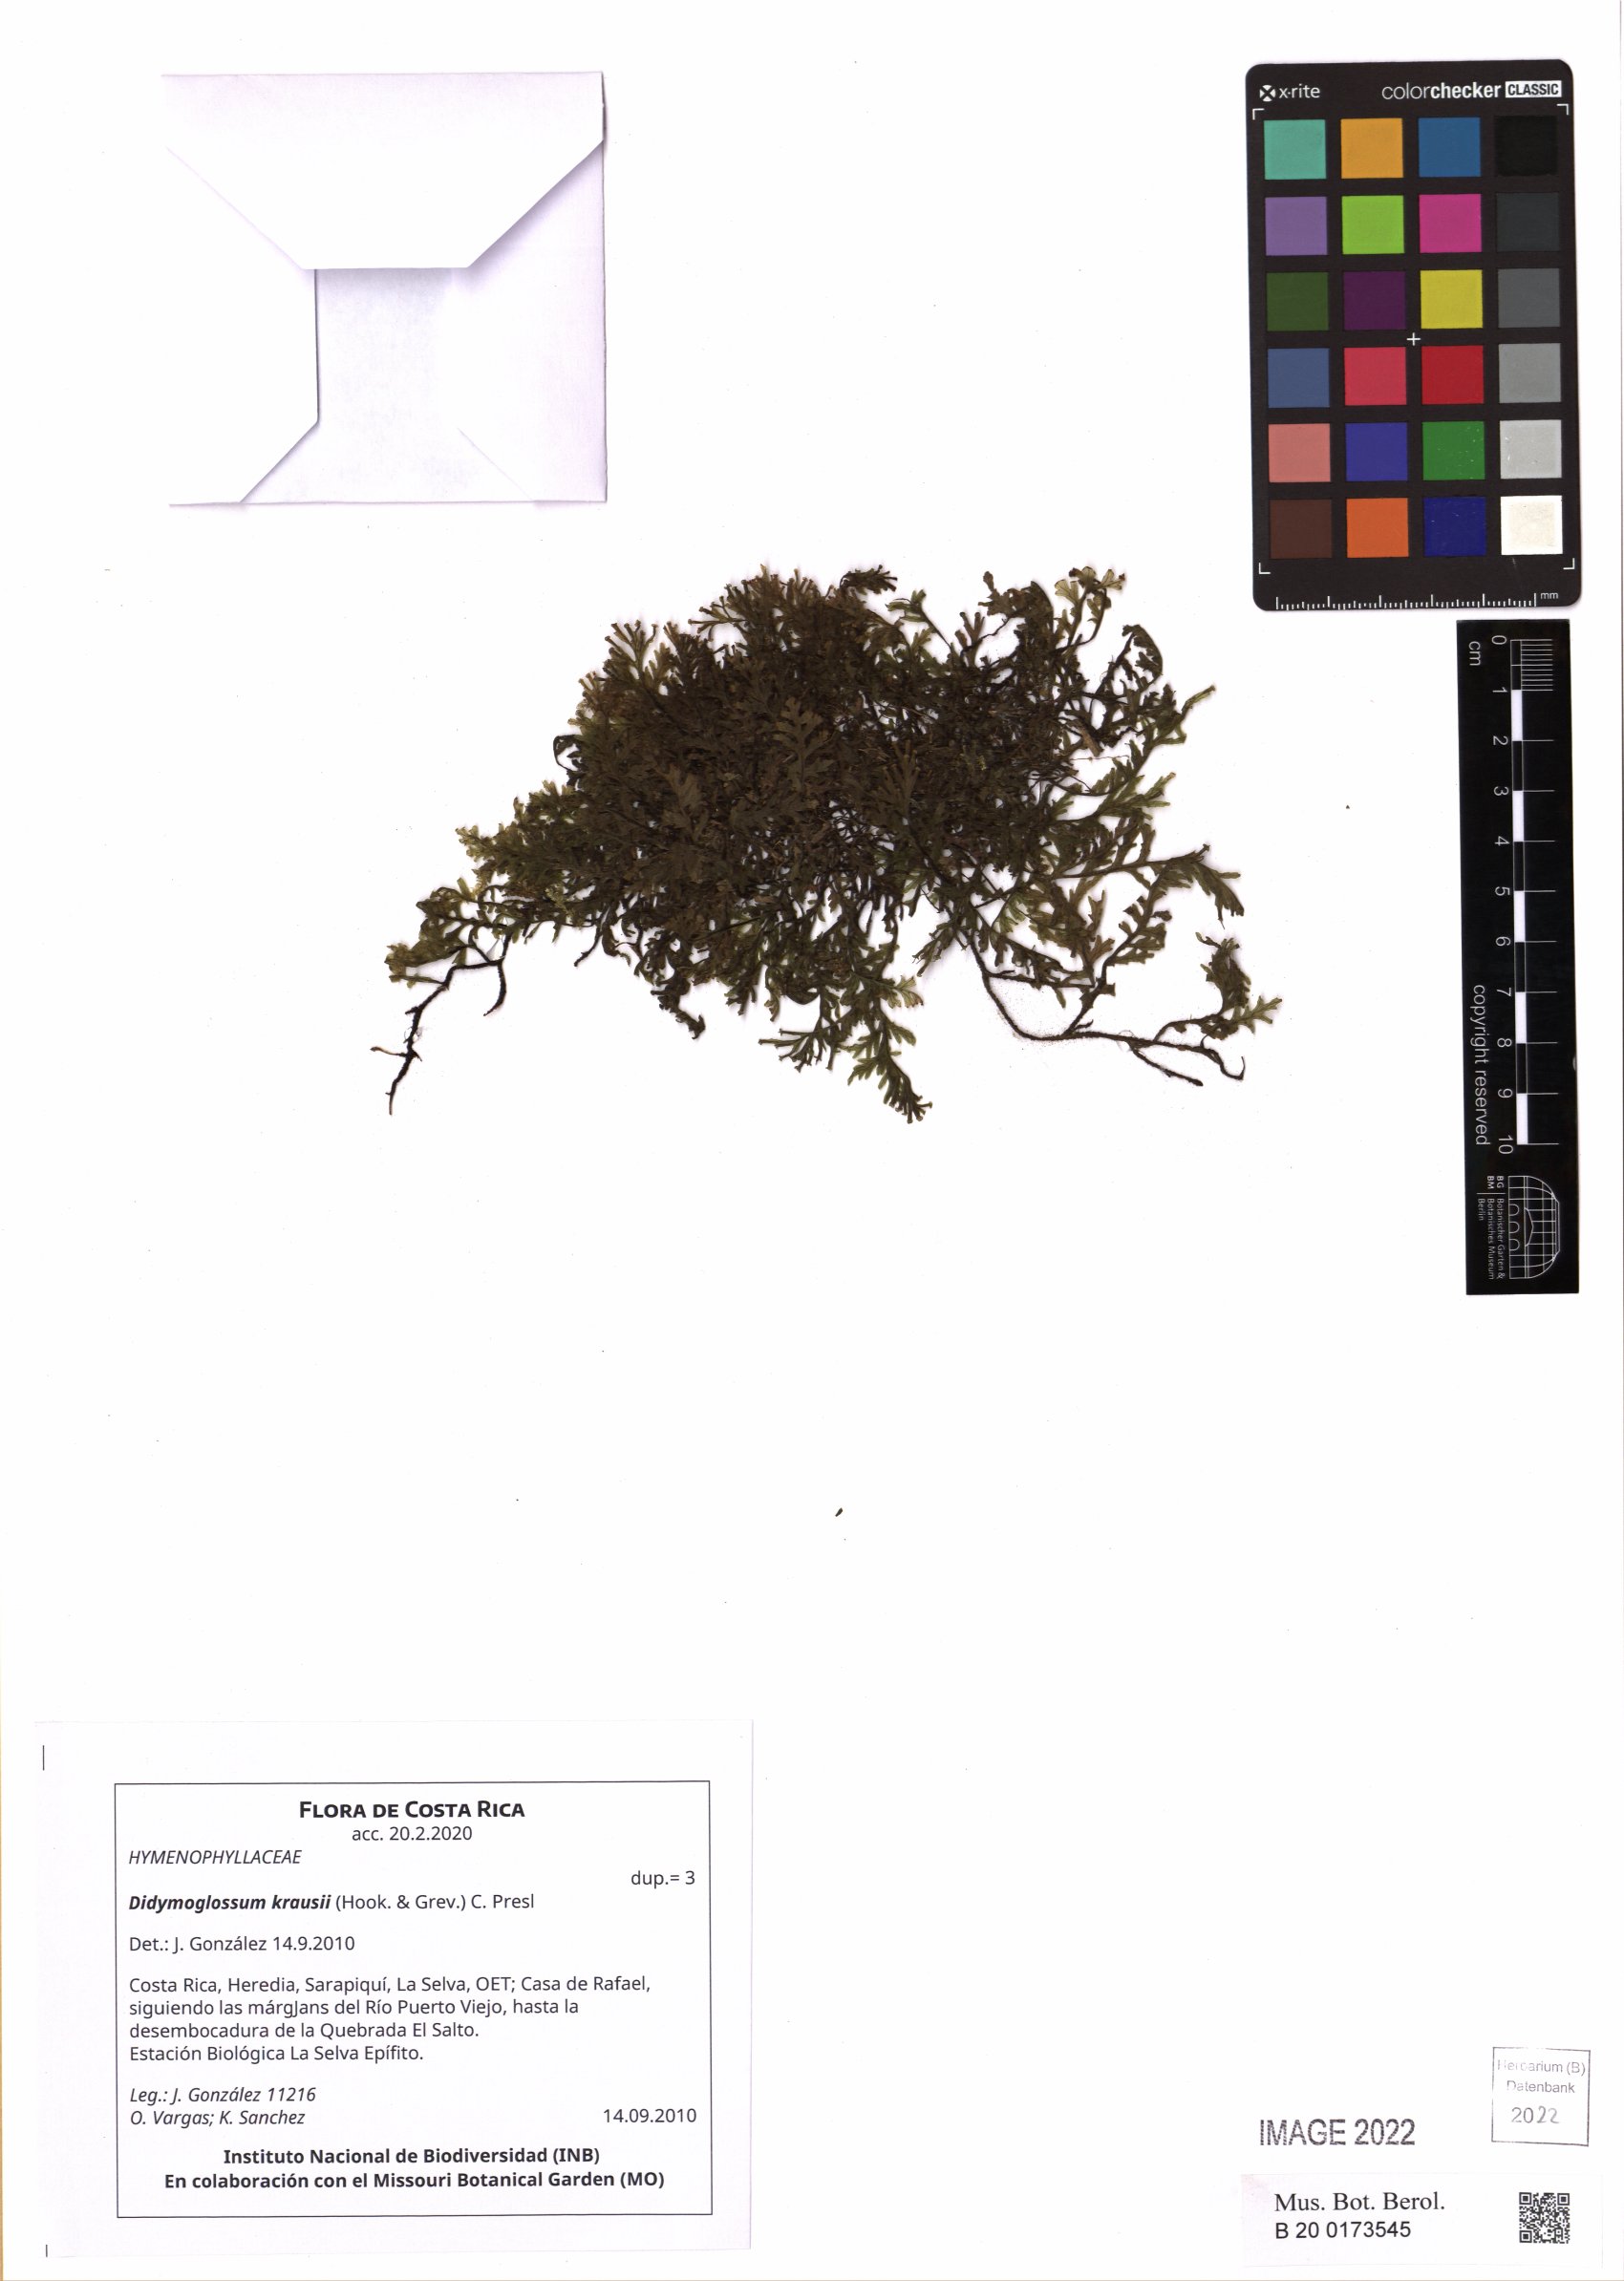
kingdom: Plantae
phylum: Tracheophyta
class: Polypodiopsida
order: Hymenophyllales
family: Hymenophyllaceae
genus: Didymoglossum
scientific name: Didymoglossum kraussii
